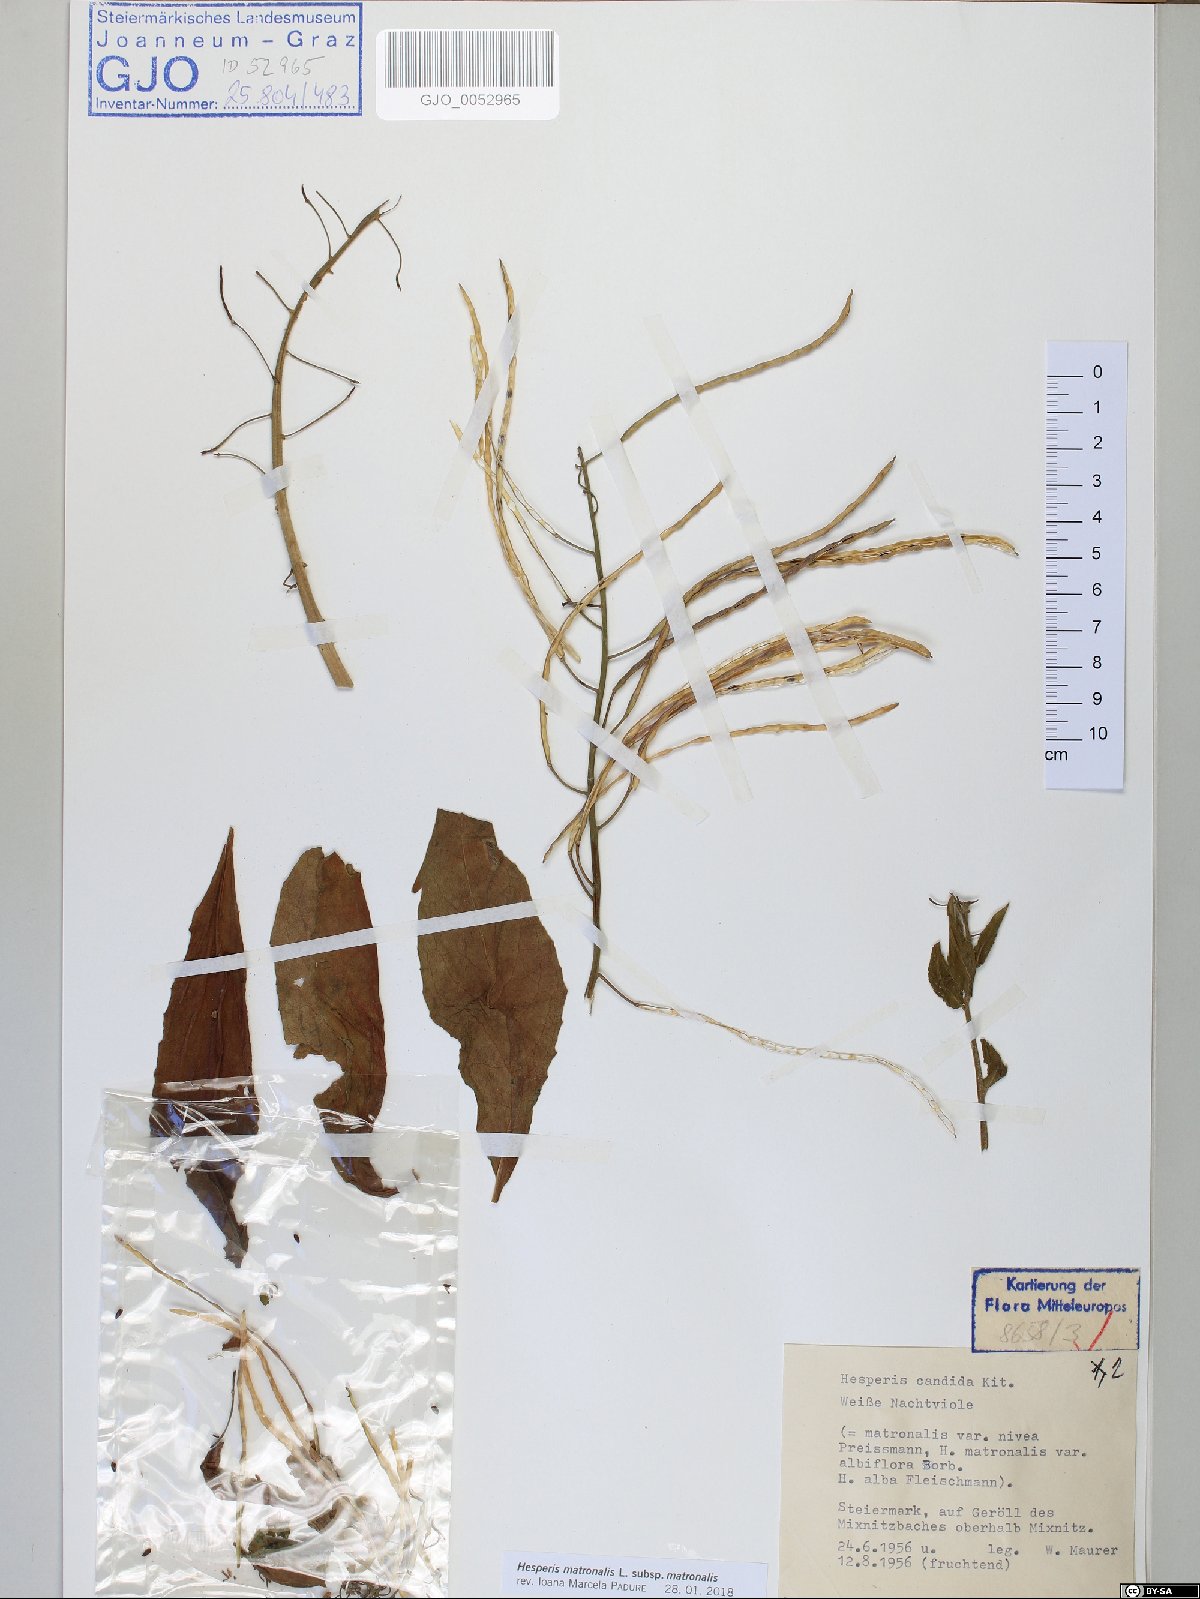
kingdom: Plantae
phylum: Tracheophyta
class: Magnoliopsida
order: Brassicales
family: Brassicaceae
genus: Hesperis
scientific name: Hesperis matronalis
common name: Dame's-violet
